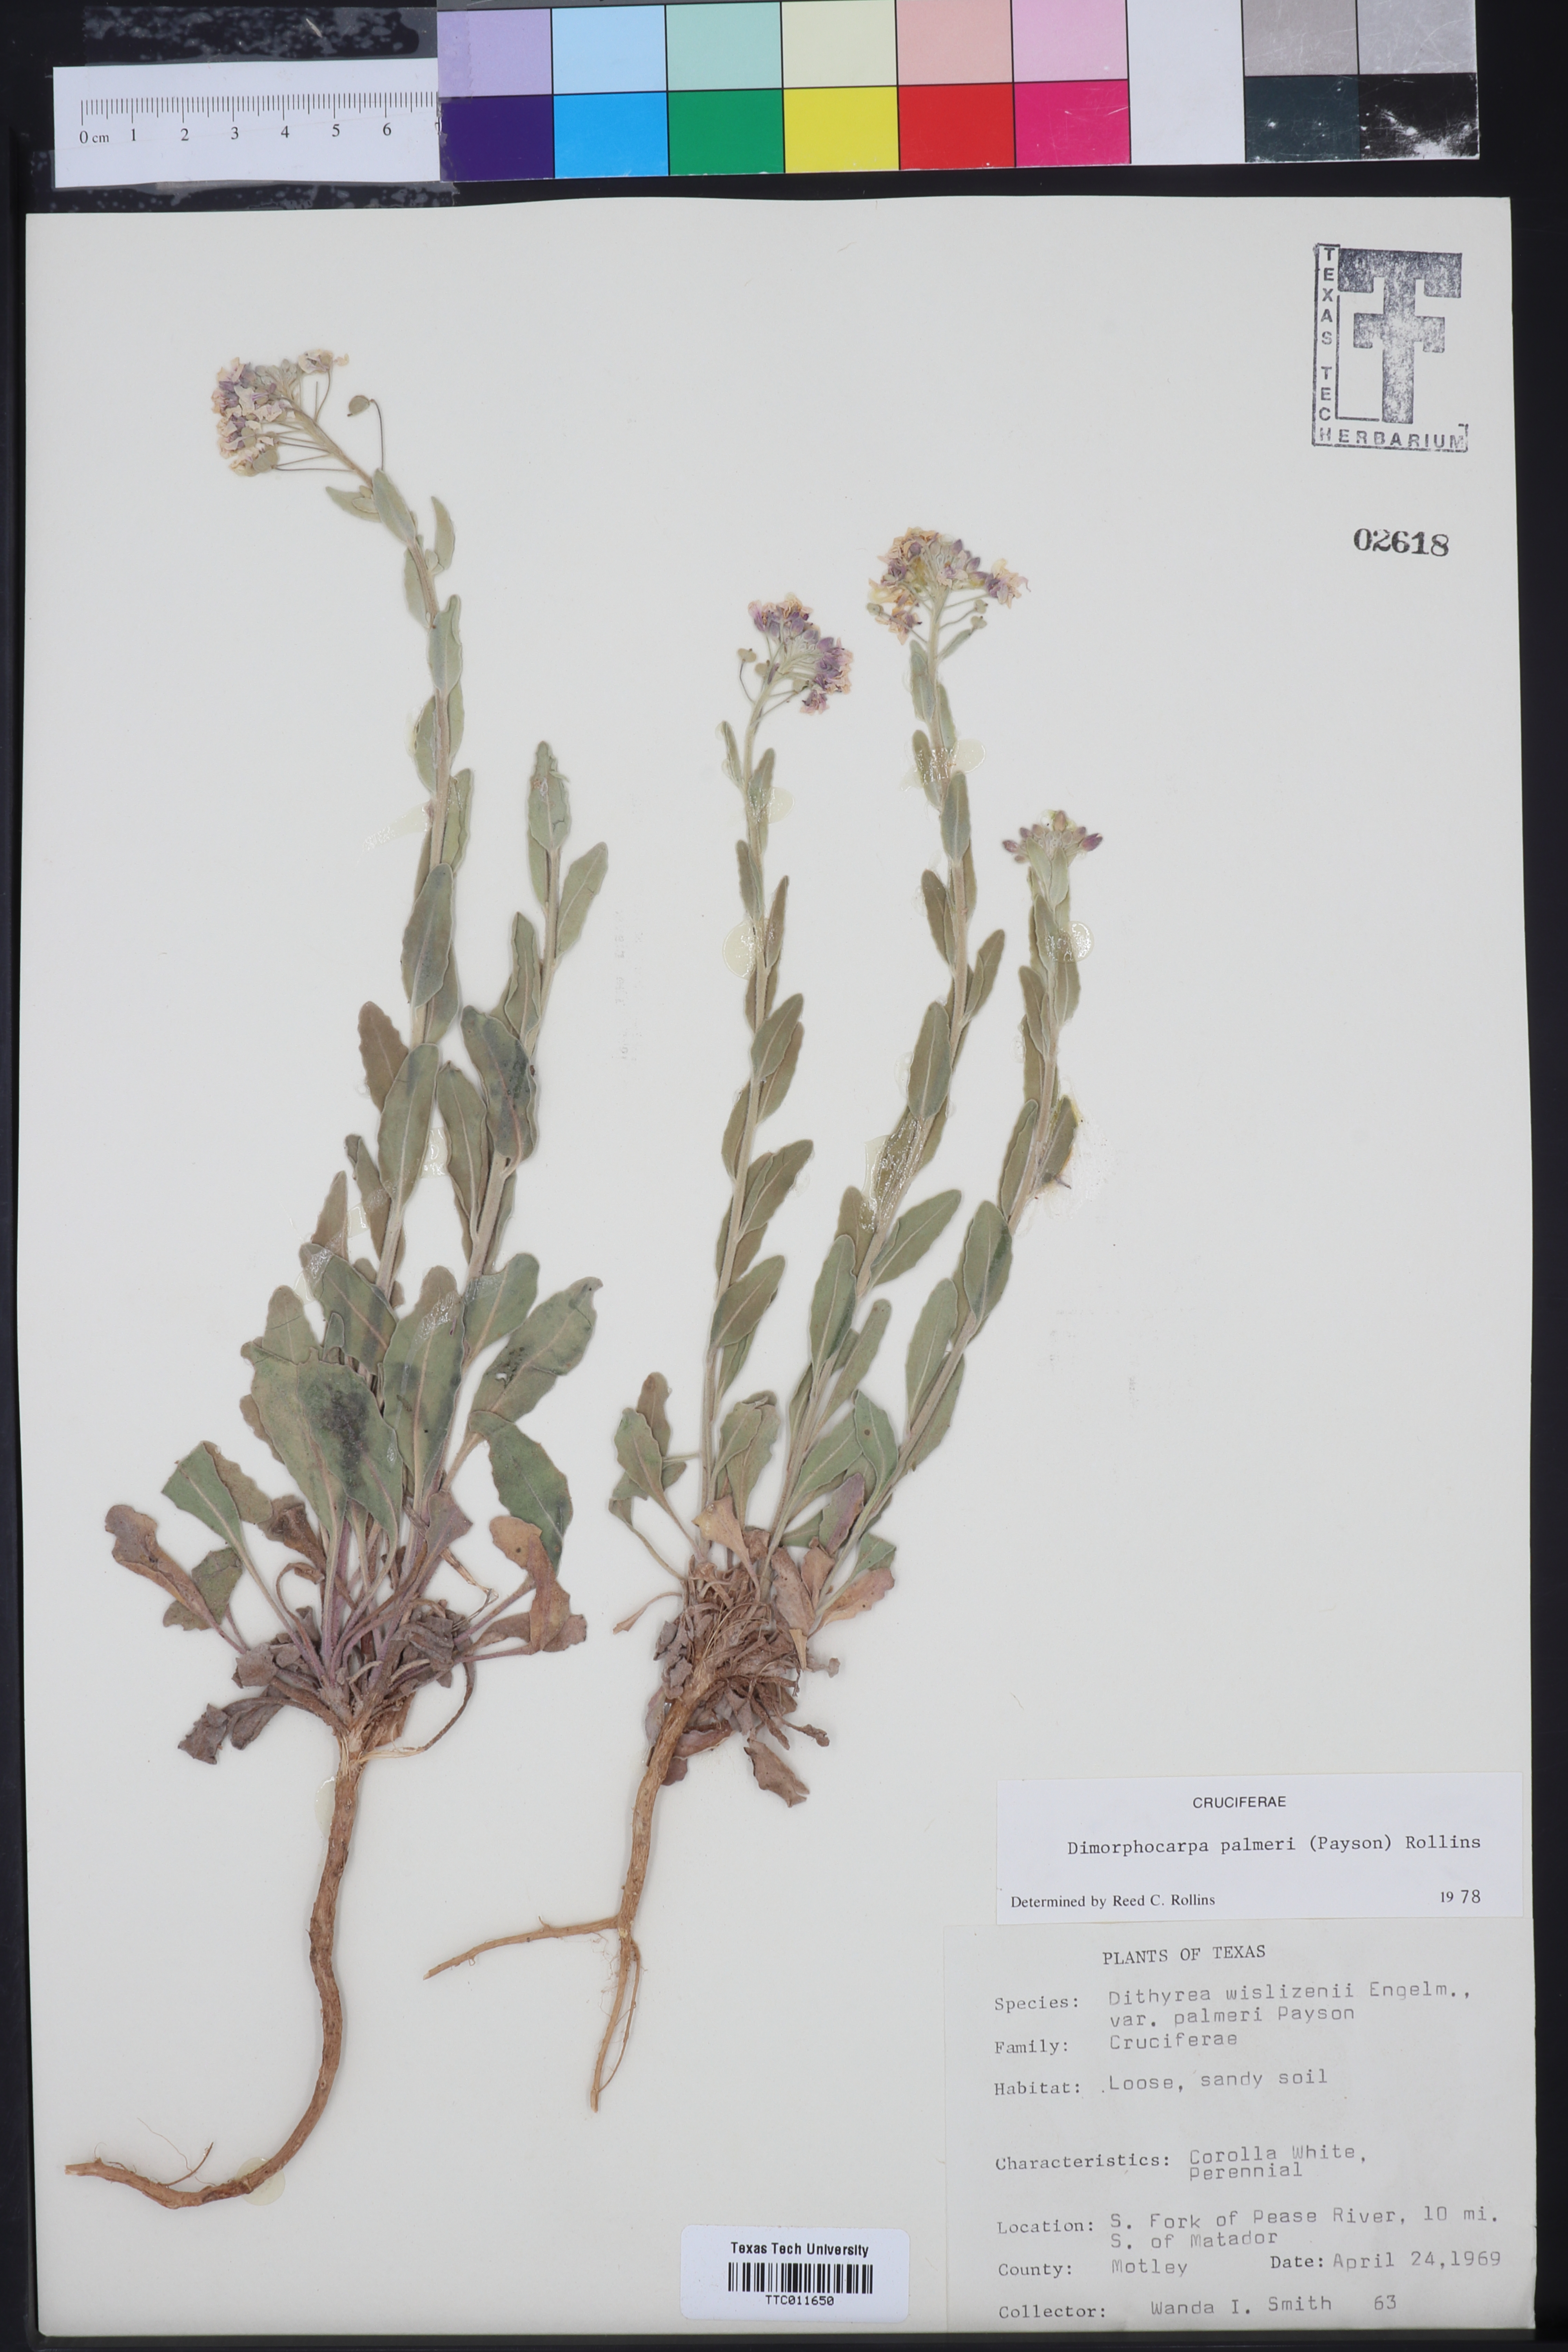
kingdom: Plantae
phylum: Tracheophyta
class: Magnoliopsida
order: Brassicales
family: Brassicaceae
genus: Dimorphocarpa
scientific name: Dimorphocarpa candicans
